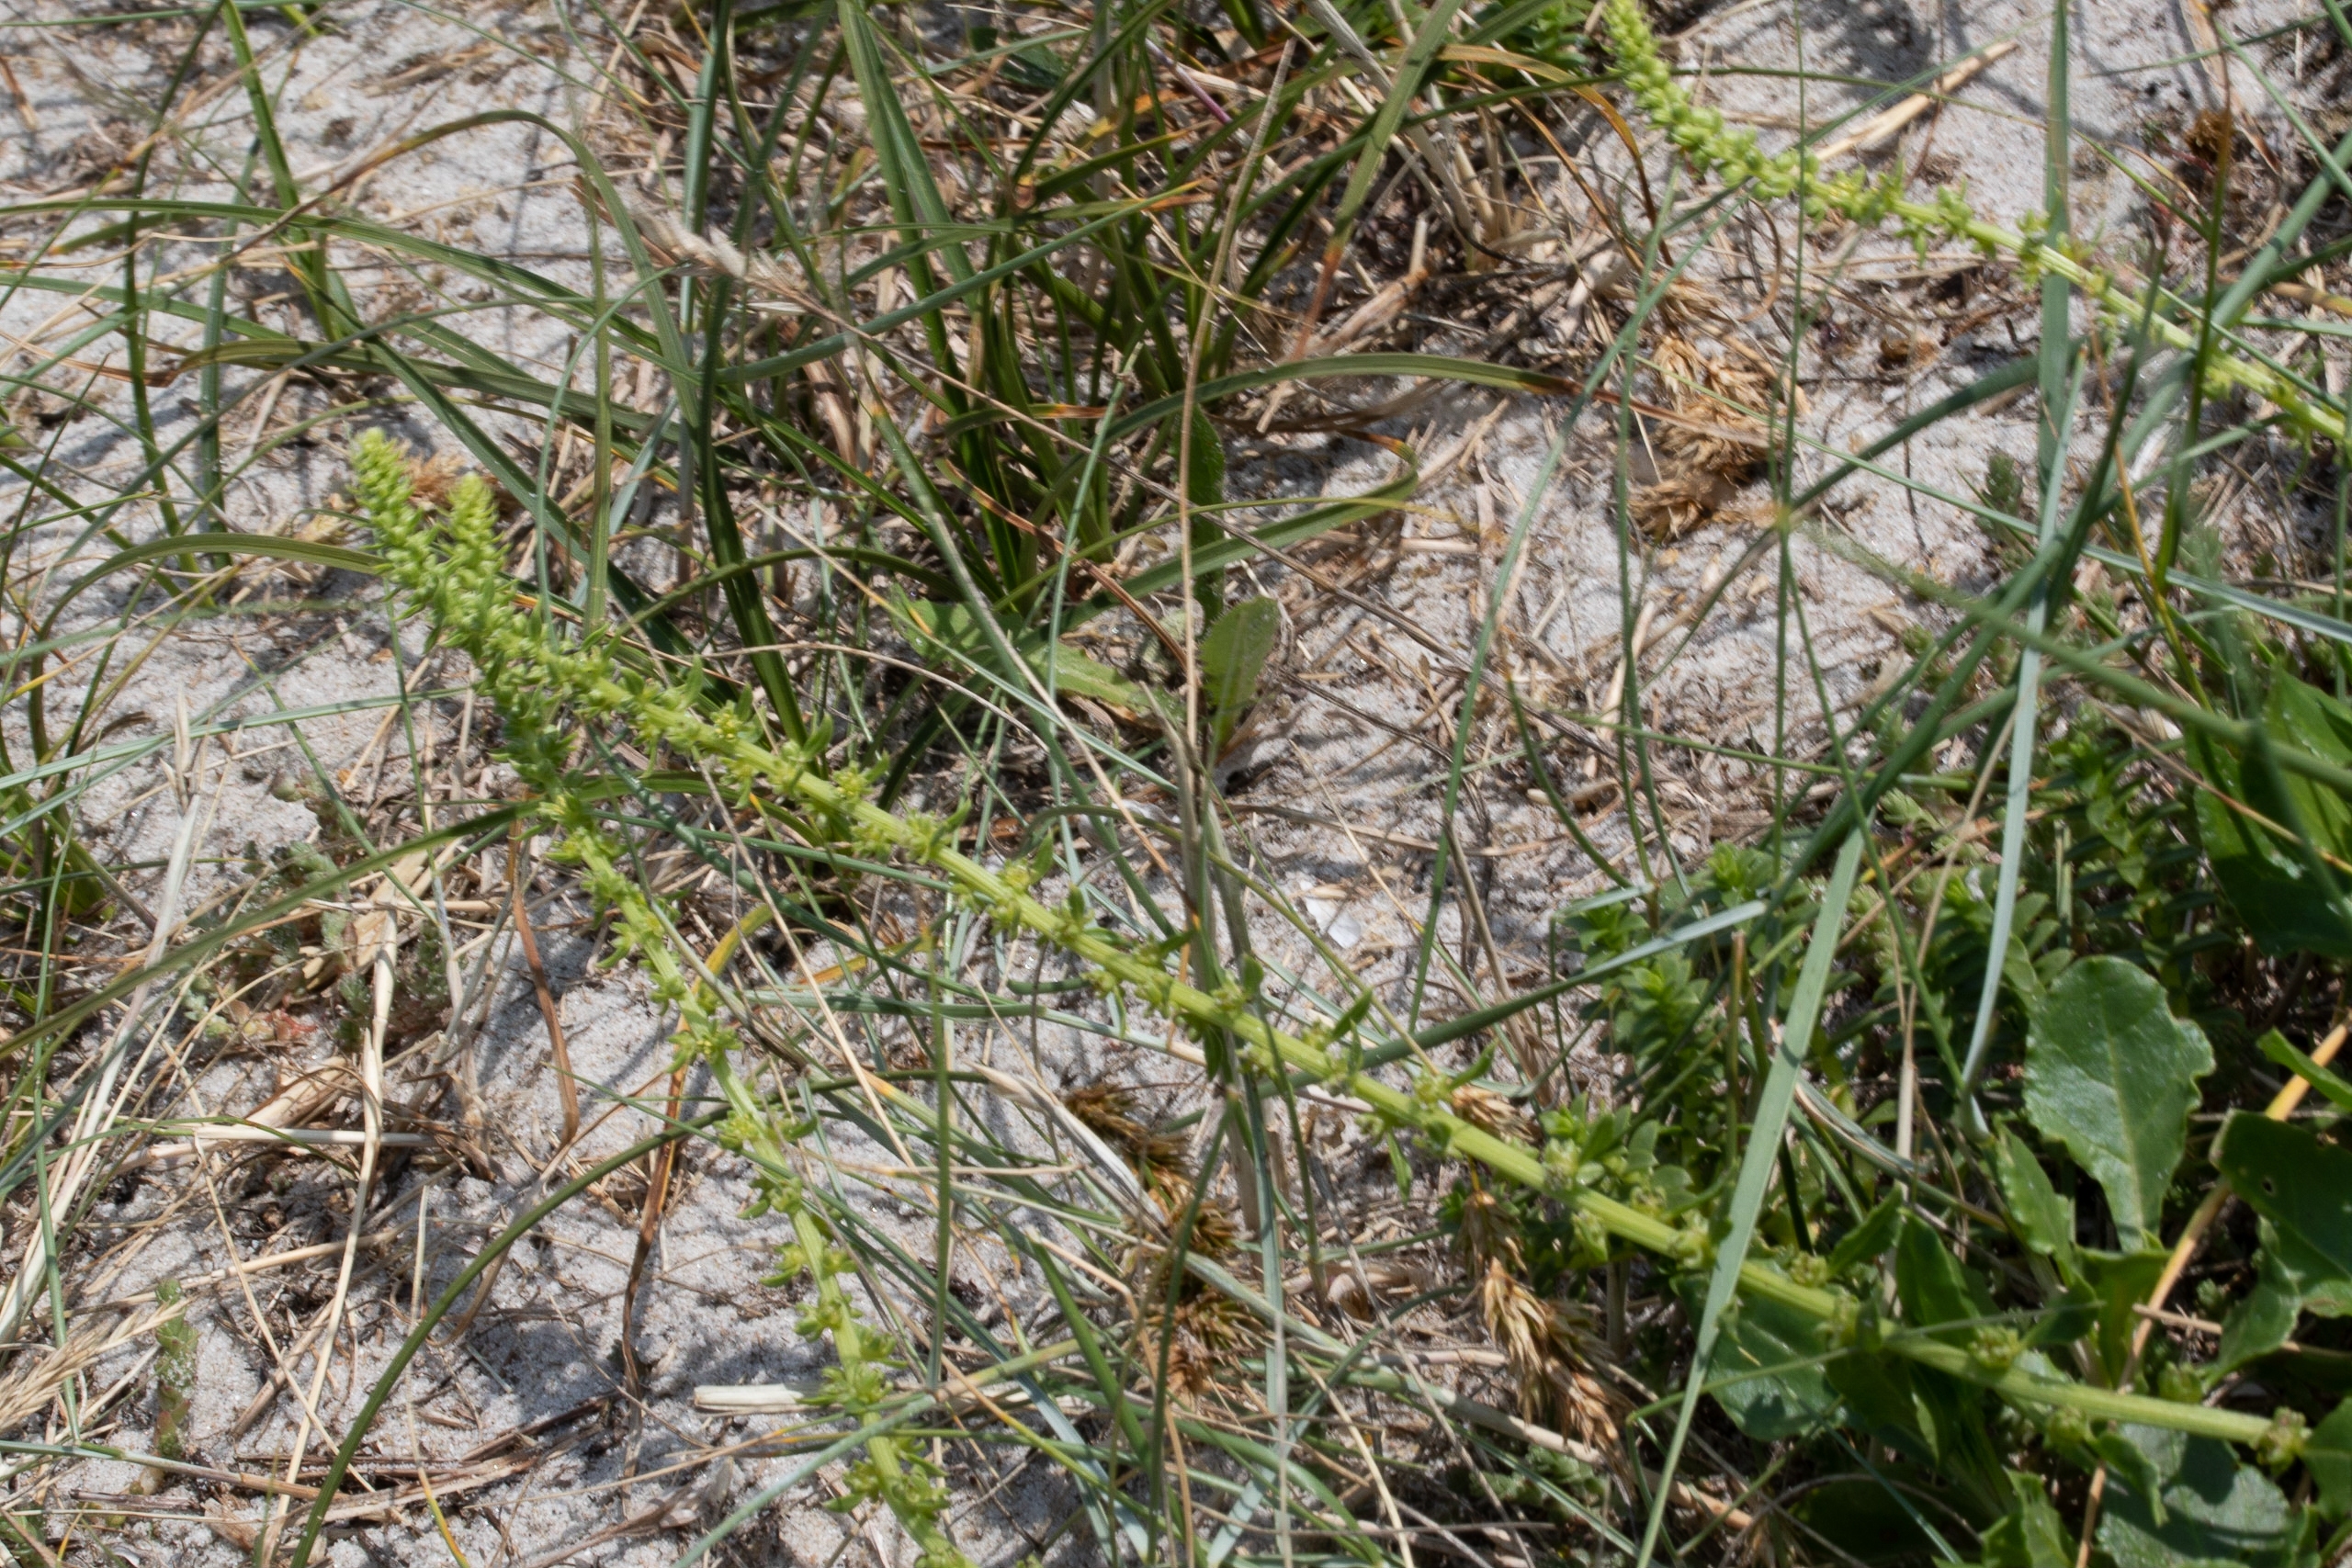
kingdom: Plantae
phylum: Tracheophyta
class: Magnoliopsida
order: Caryophyllales
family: Amaranthaceae
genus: Beta
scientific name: Beta maritima
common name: Strand-bede
